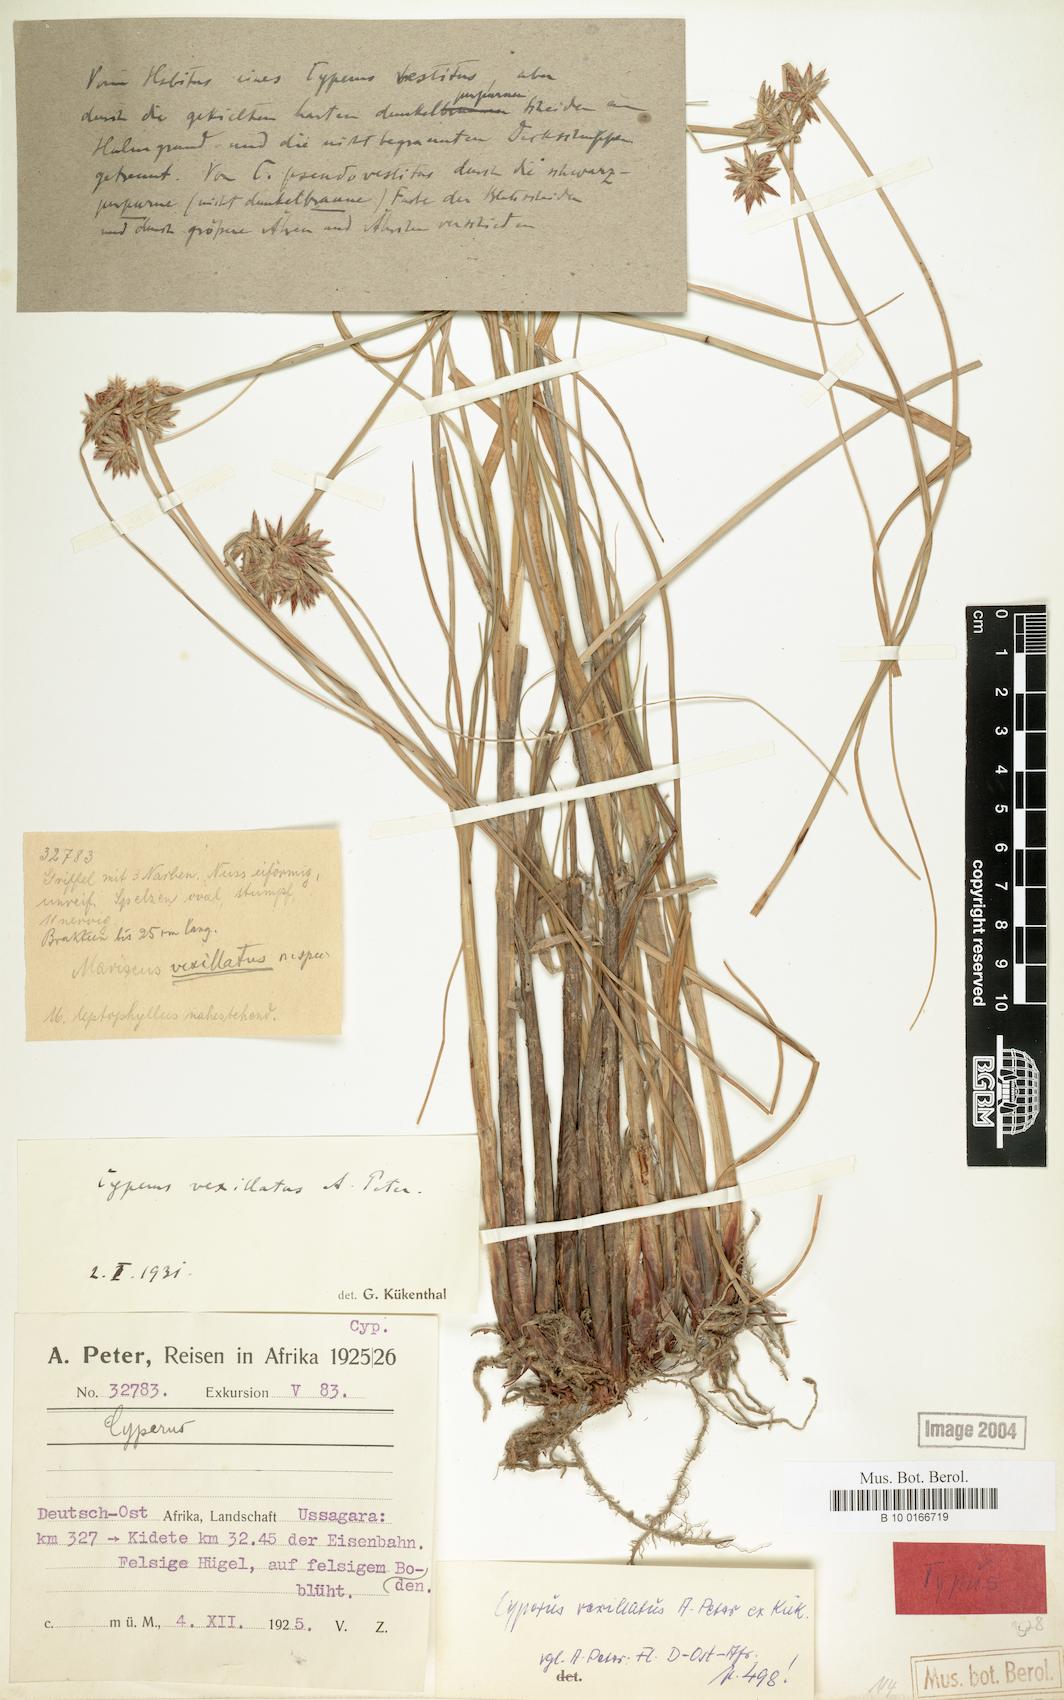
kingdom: Plantae
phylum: Tracheophyta
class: Liliopsida
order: Poales
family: Cyperaceae
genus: Cyperus
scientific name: Cyperus cruentus
